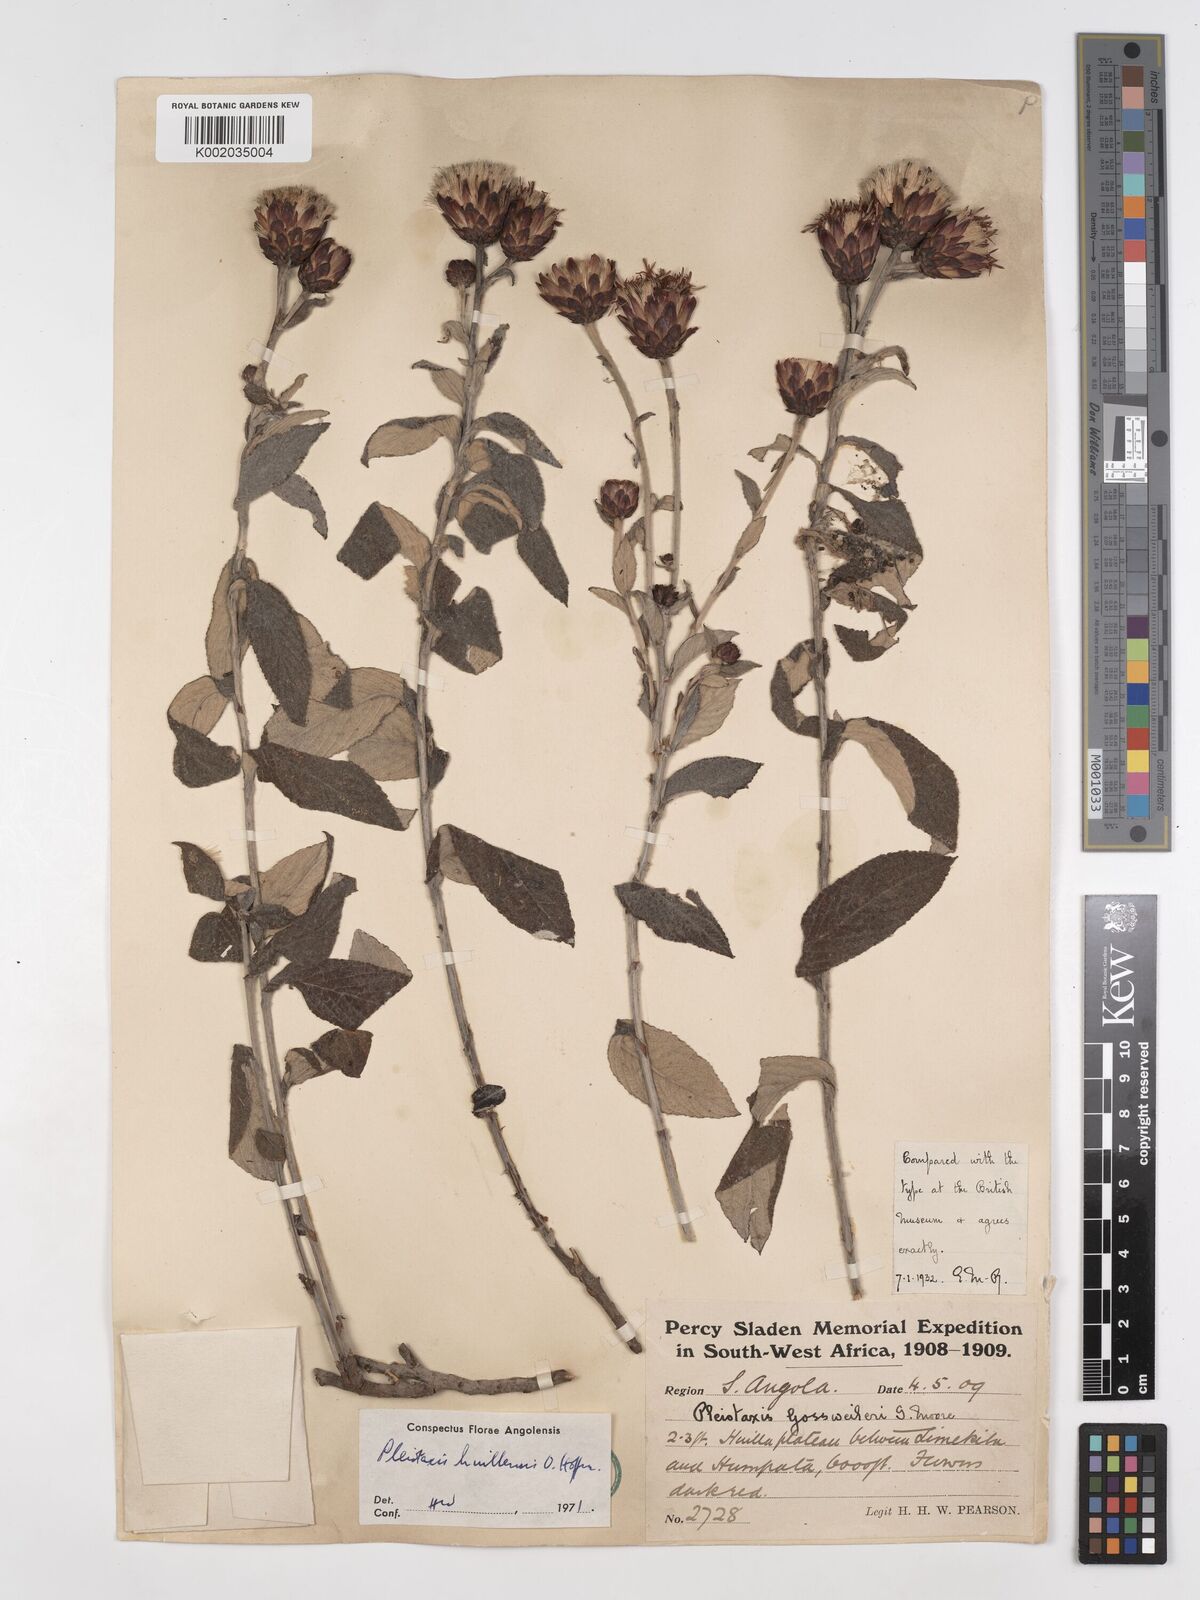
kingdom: Plantae
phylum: Tracheophyta
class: Magnoliopsida
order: Asterales
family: Asteraceae
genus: Pleiotaxis
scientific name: Pleiotaxis huillensis
